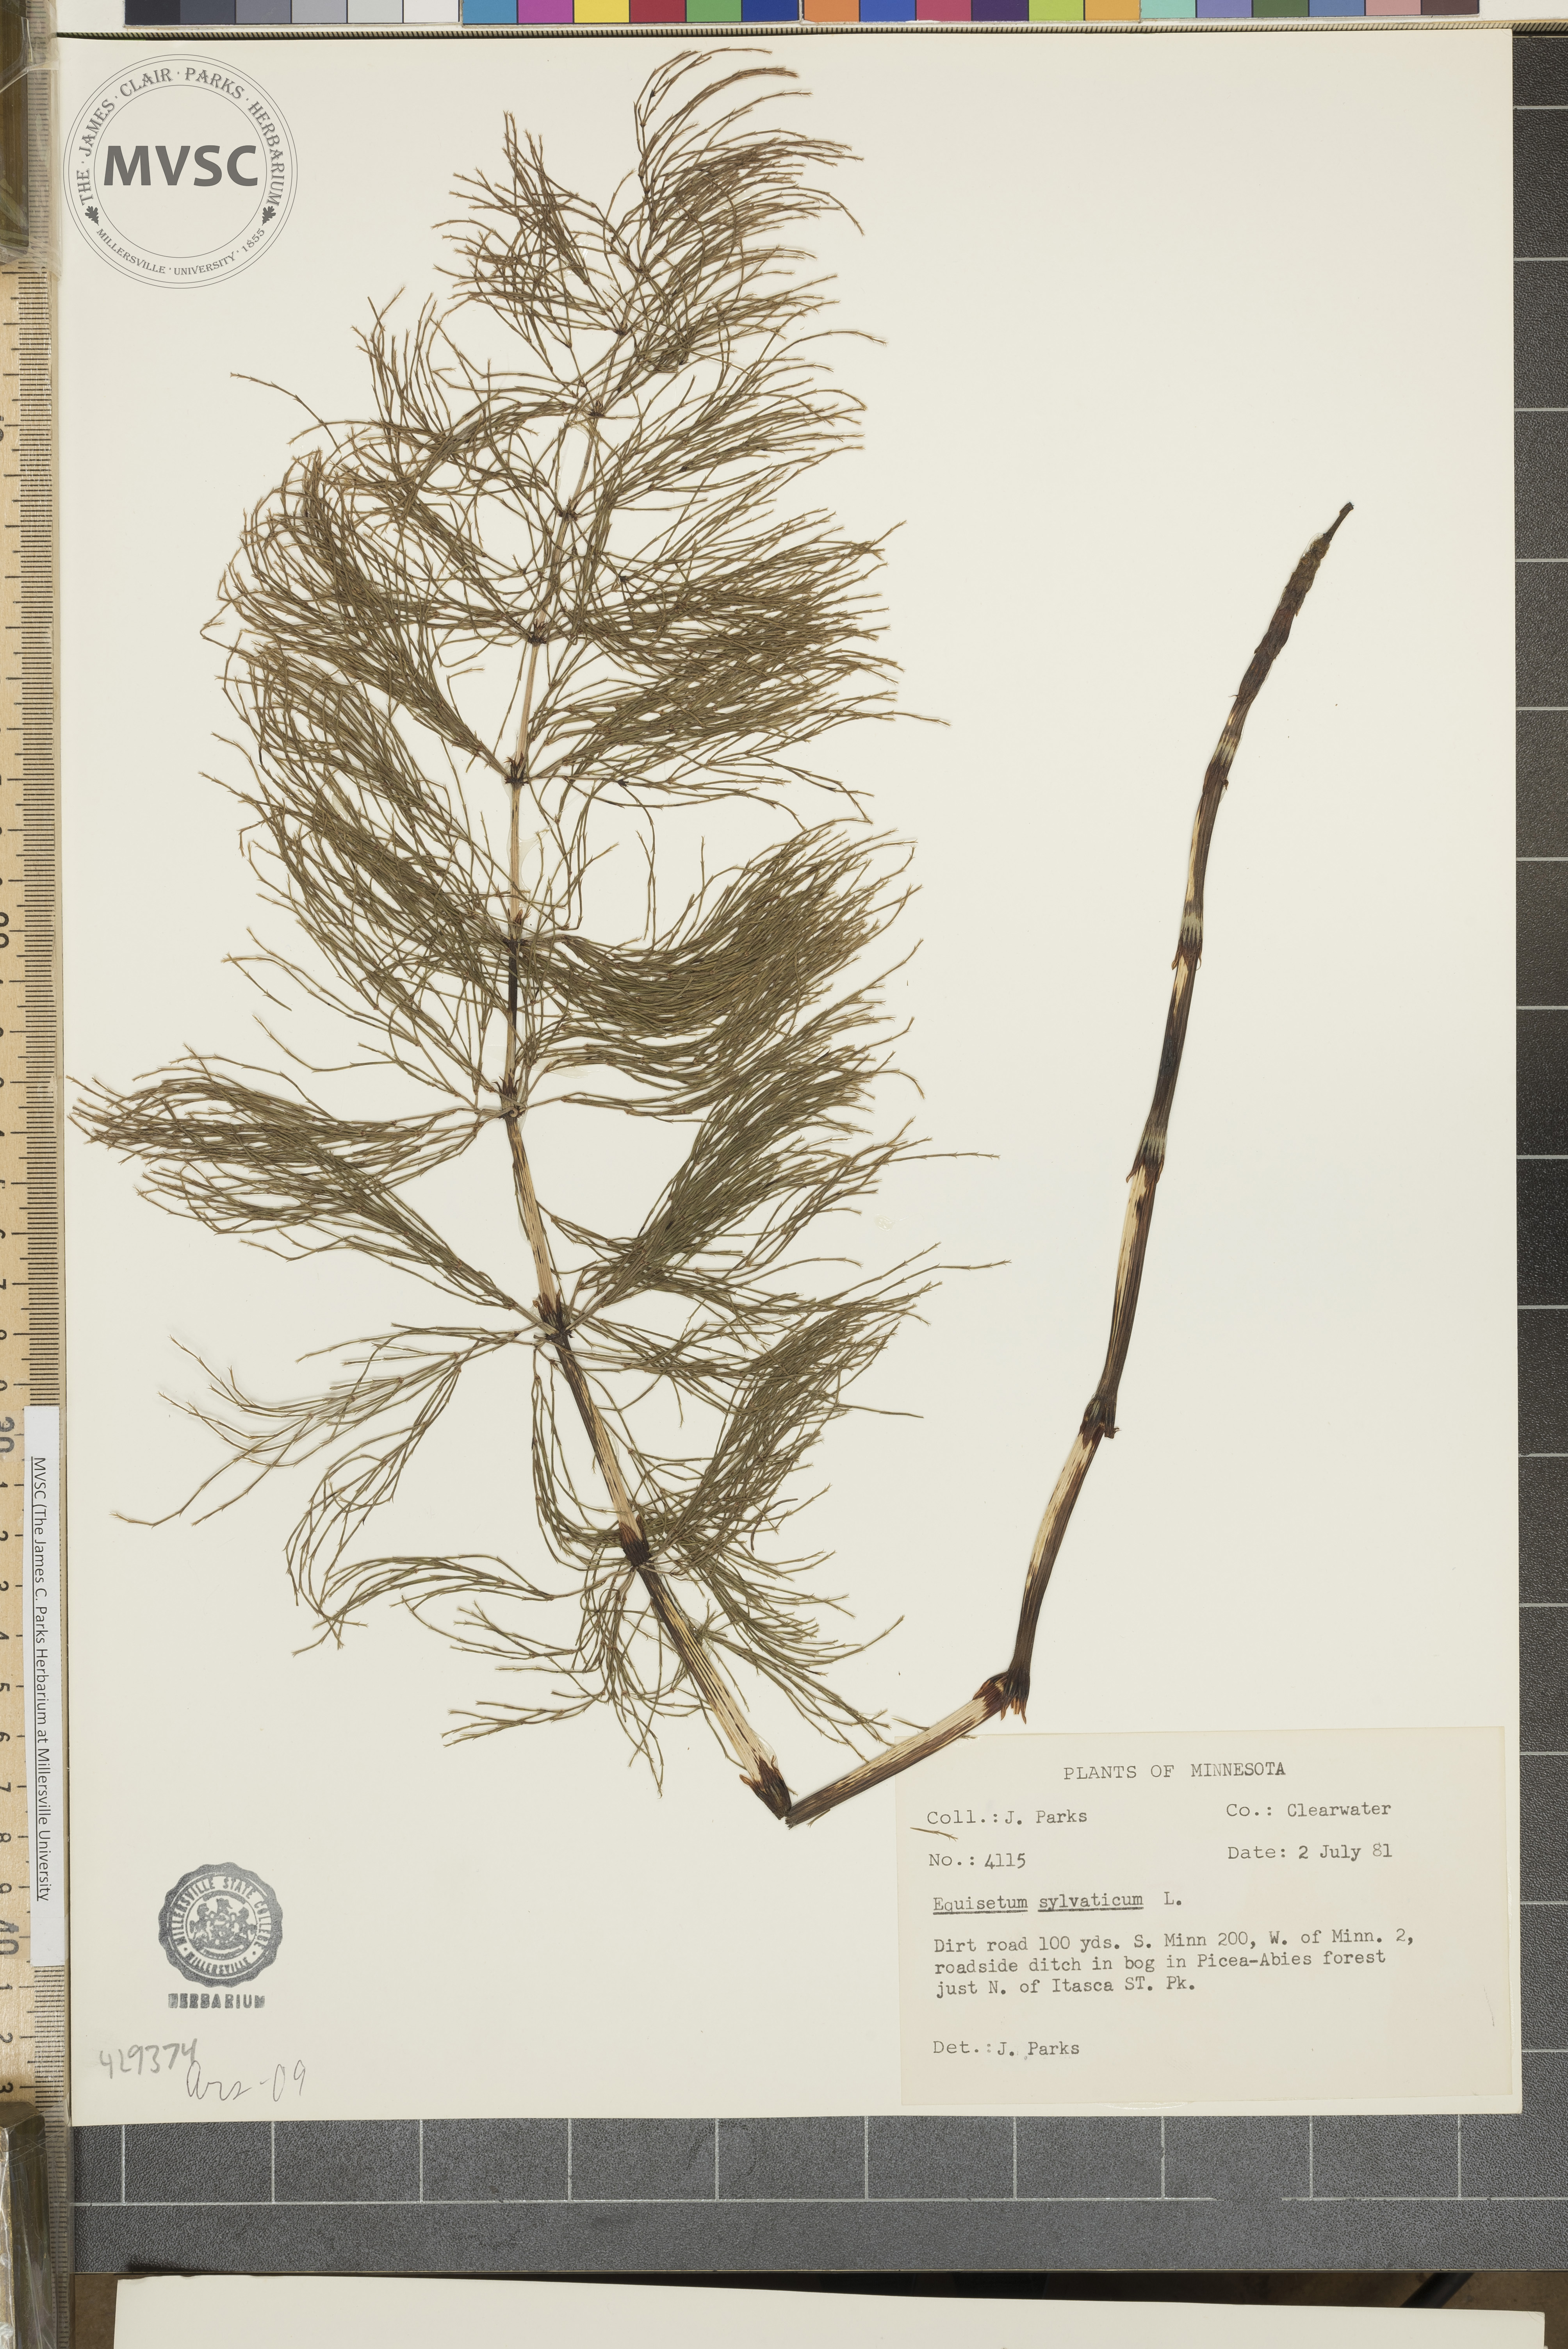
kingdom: Plantae
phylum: Tracheophyta
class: Polypodiopsida
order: Equisetales
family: Equisetaceae
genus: Equisetum
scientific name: Equisetum sylvaticum
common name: Wood horsetail
